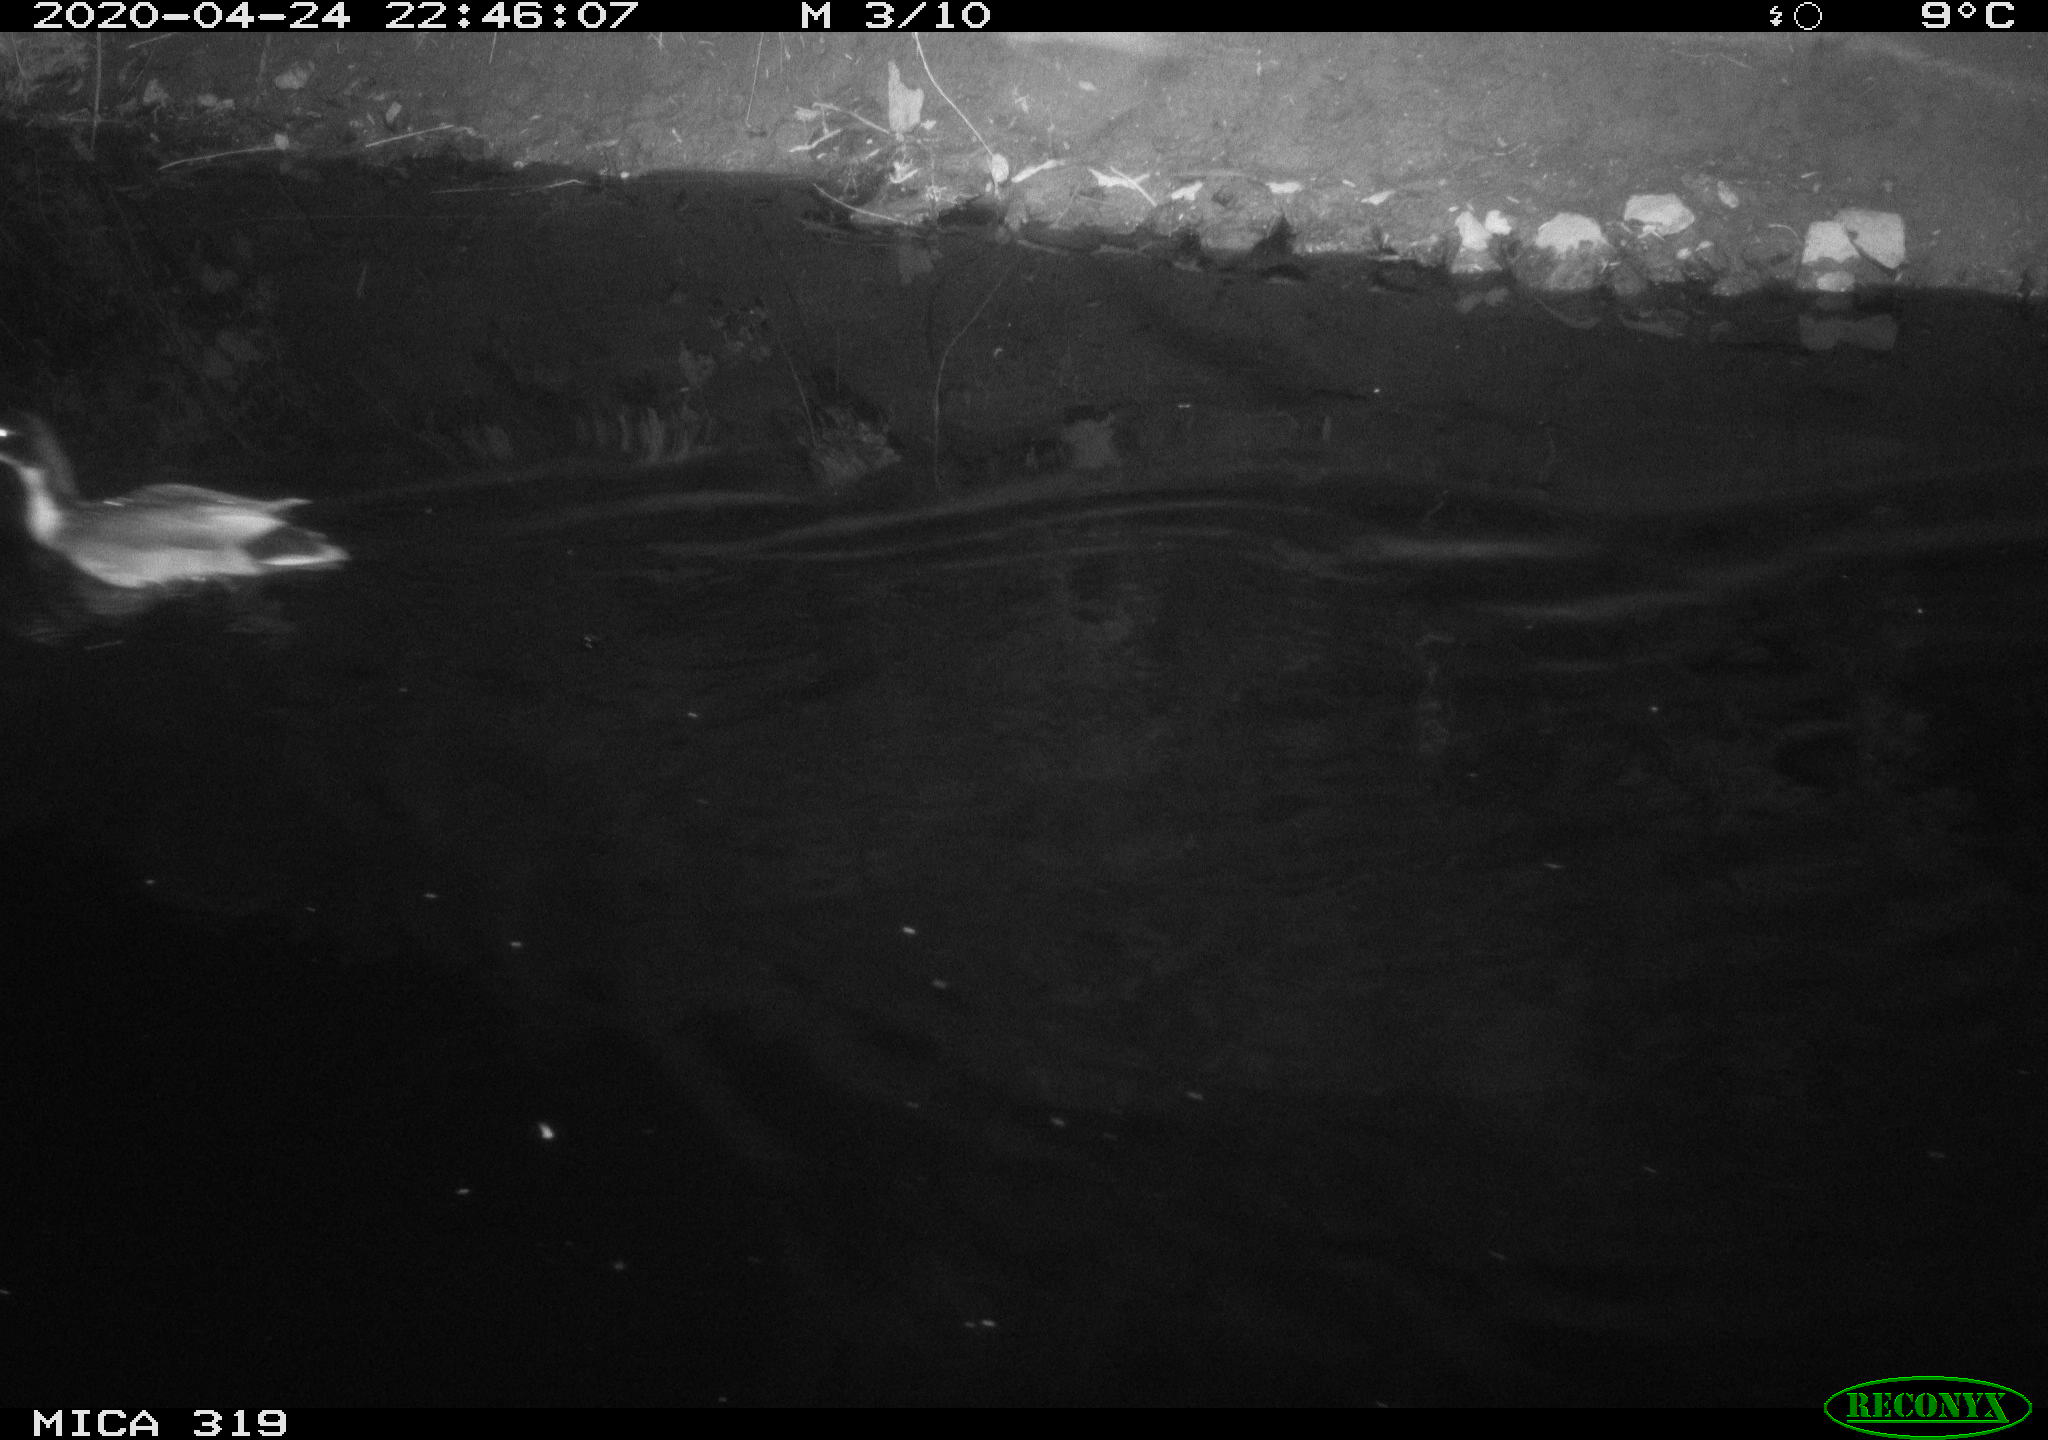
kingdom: Animalia
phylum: Chordata
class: Aves
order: Anseriformes
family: Anatidae
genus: Anas
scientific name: Anas platyrhynchos
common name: Mallard
